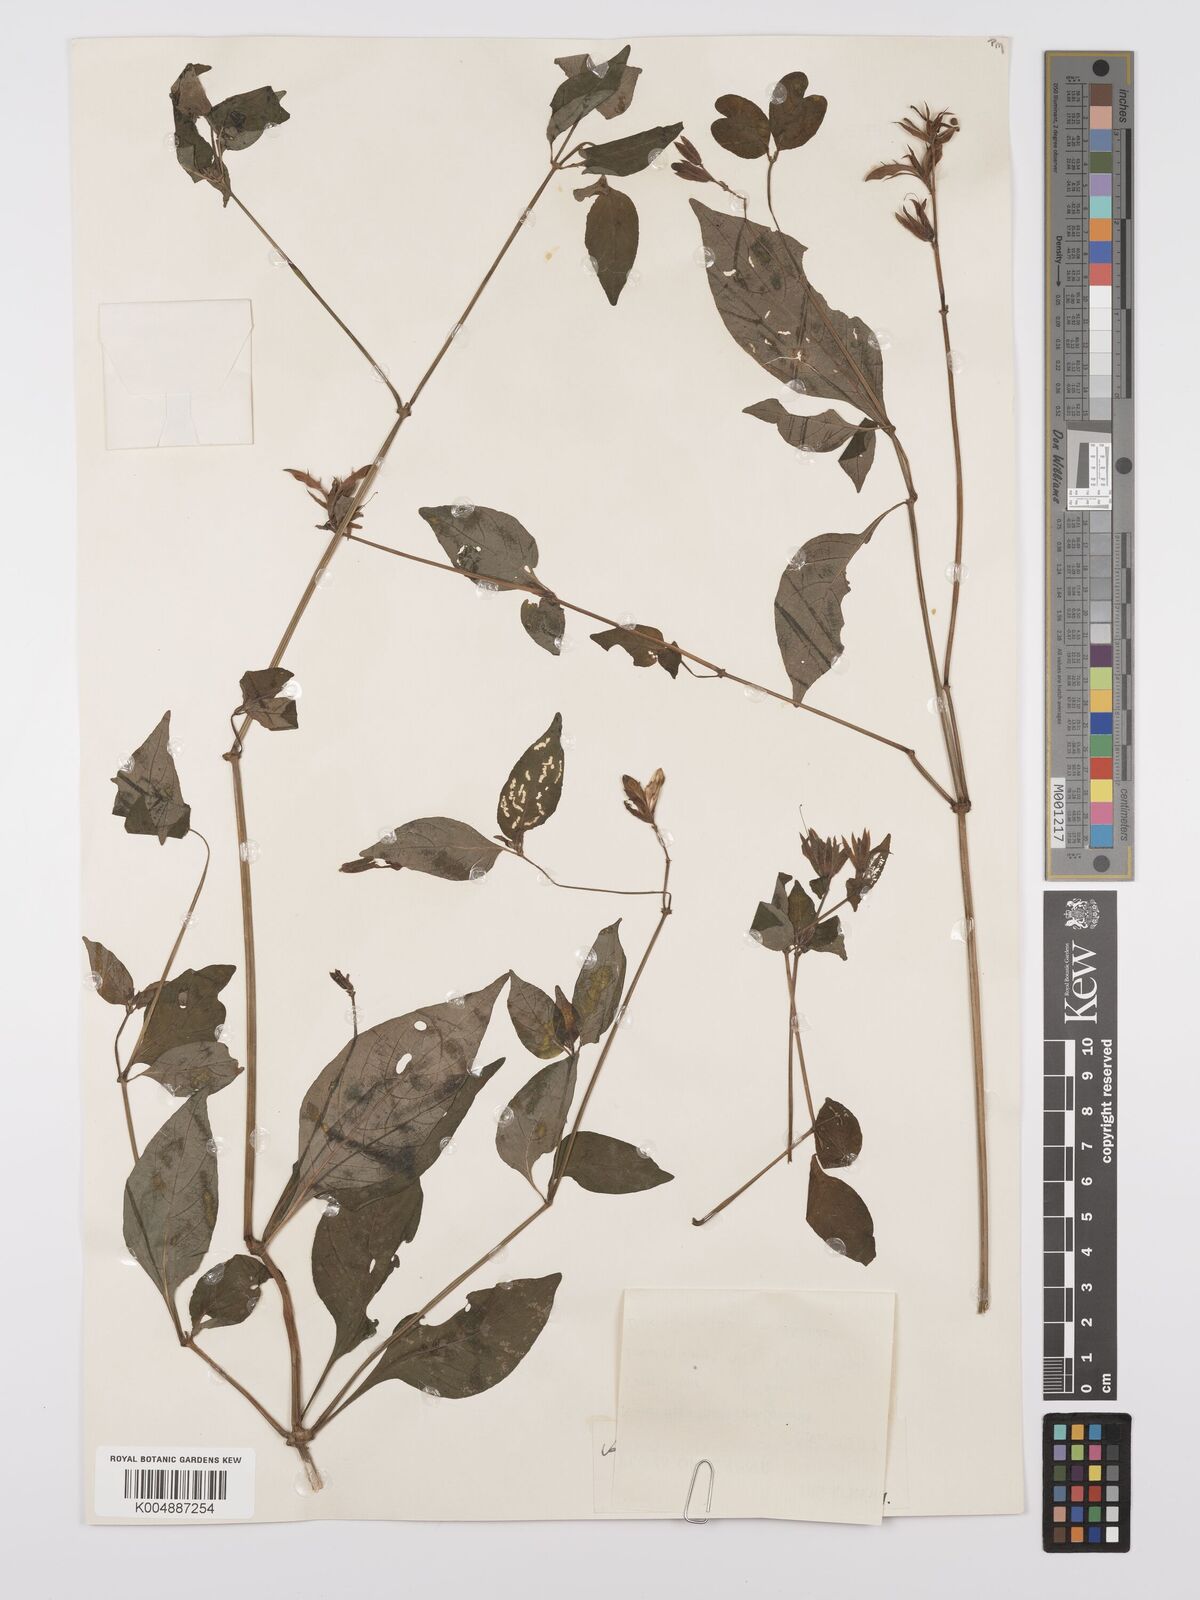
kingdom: Plantae
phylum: Tracheophyta
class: Magnoliopsida
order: Lamiales
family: Acanthaceae
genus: Asystasia
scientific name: Asystasia
